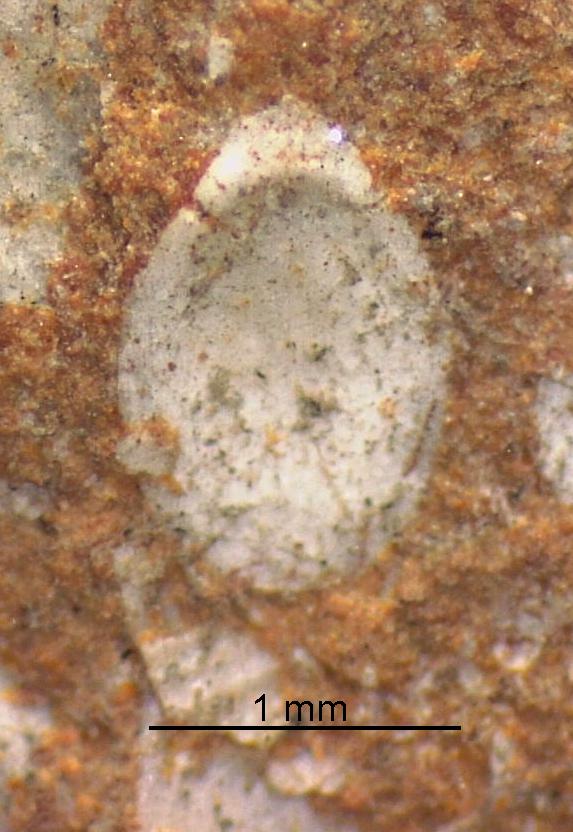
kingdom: Animalia
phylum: Brachiopoda
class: Craniata
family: Craniopsidae
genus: Pseudopholidops
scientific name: Pseudopholidops
